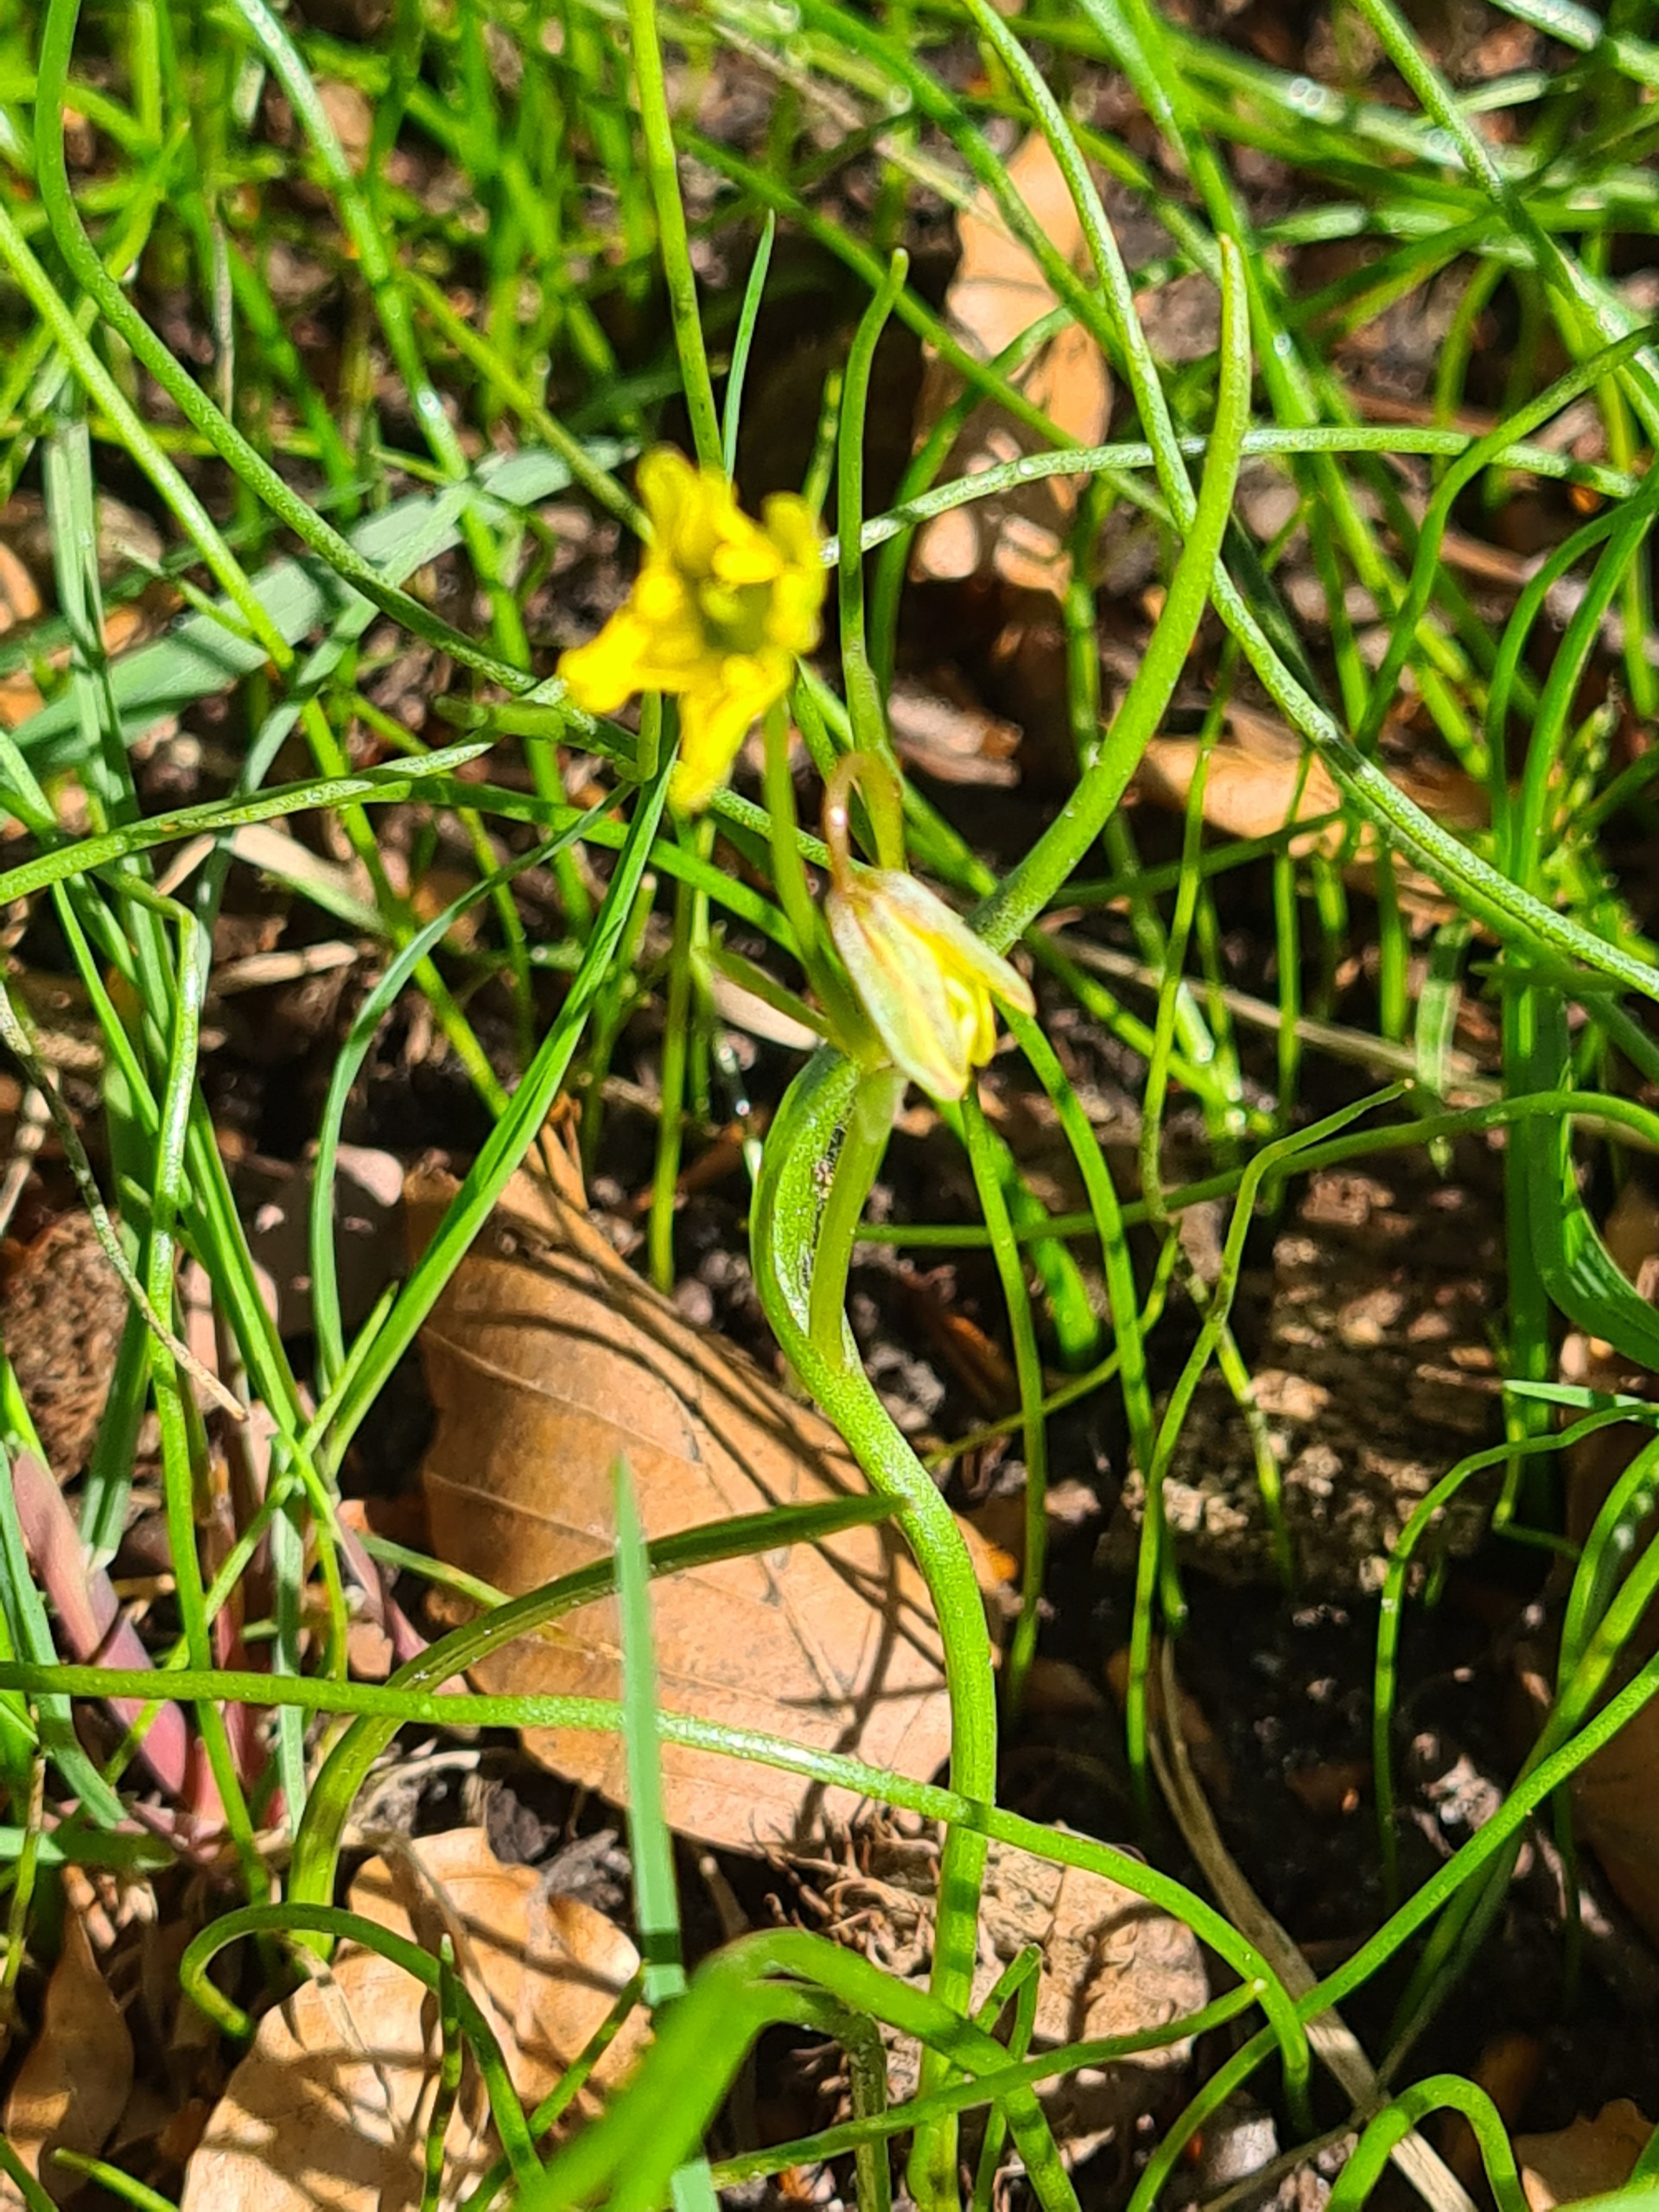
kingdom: Plantae
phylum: Tracheophyta
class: Liliopsida
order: Liliales
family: Liliaceae
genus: Gagea
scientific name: Gagea spathacea
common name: Hylster-guldstjerne
